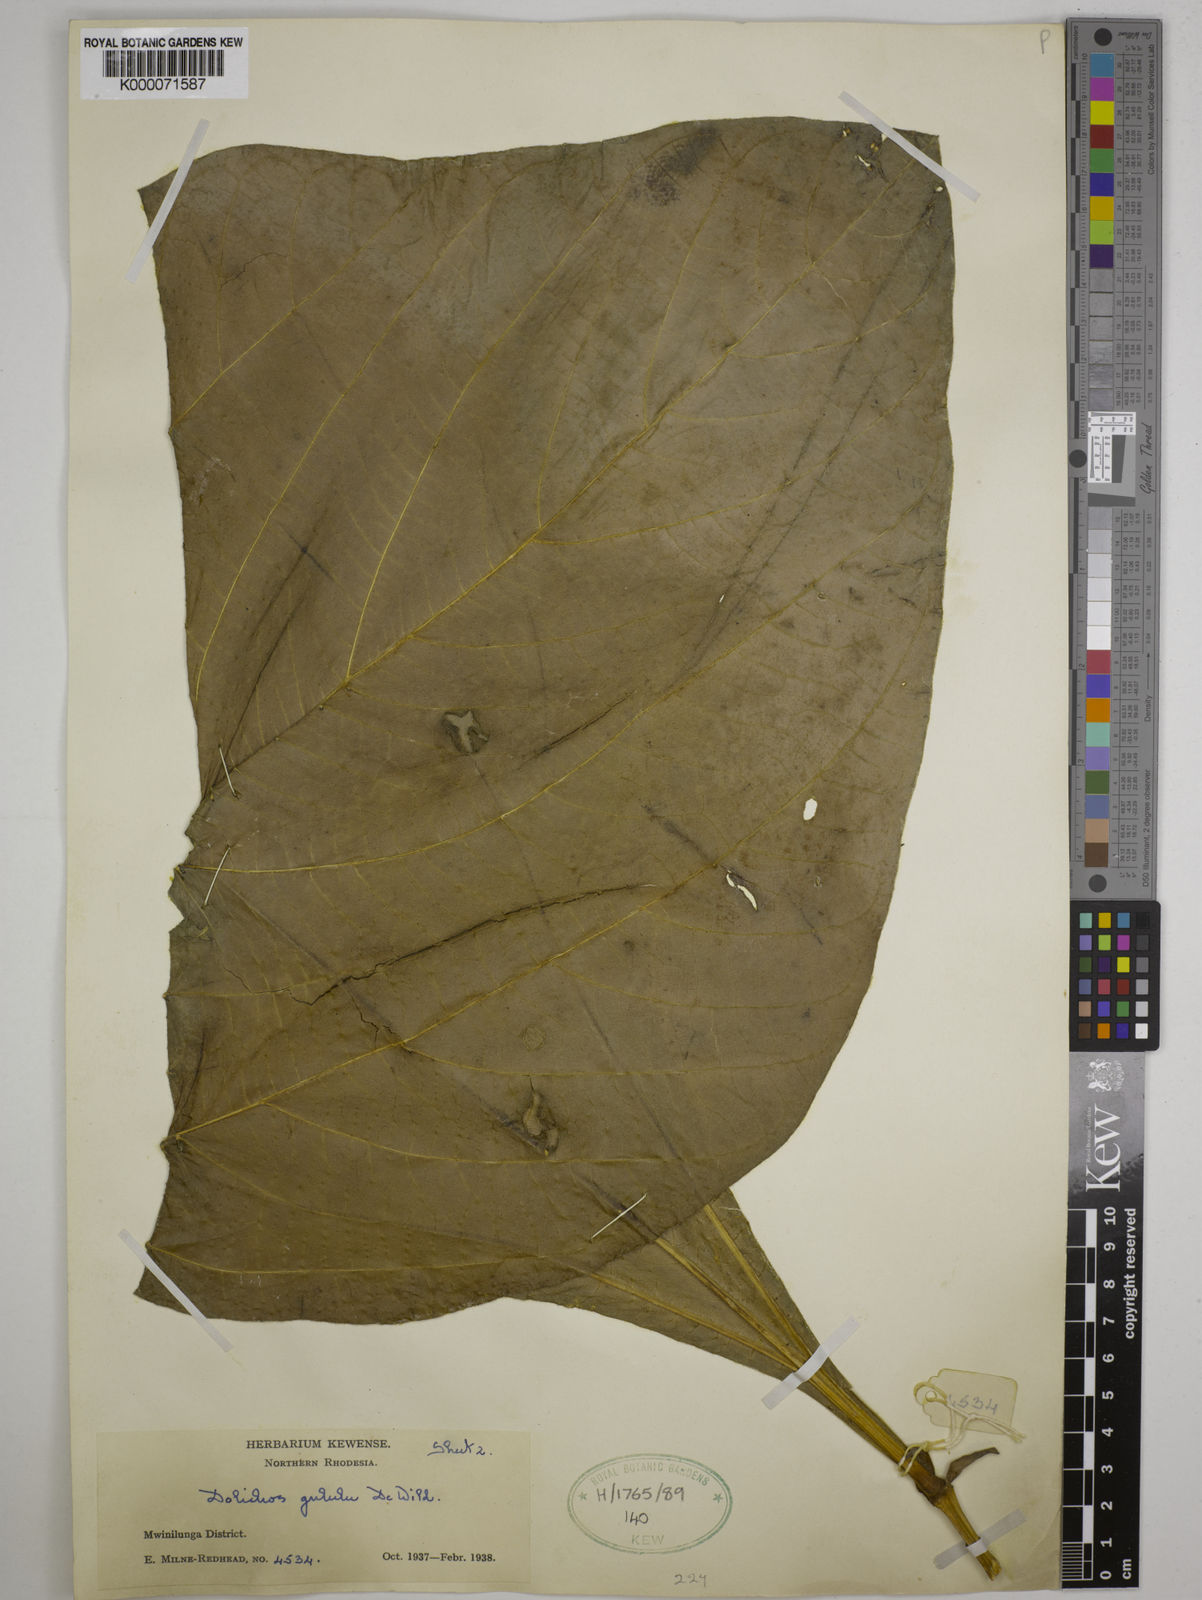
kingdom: Plantae
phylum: Tracheophyta
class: Magnoliopsida
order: Fabales
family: Fabaceae
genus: Dolichos
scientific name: Dolichos gululu
